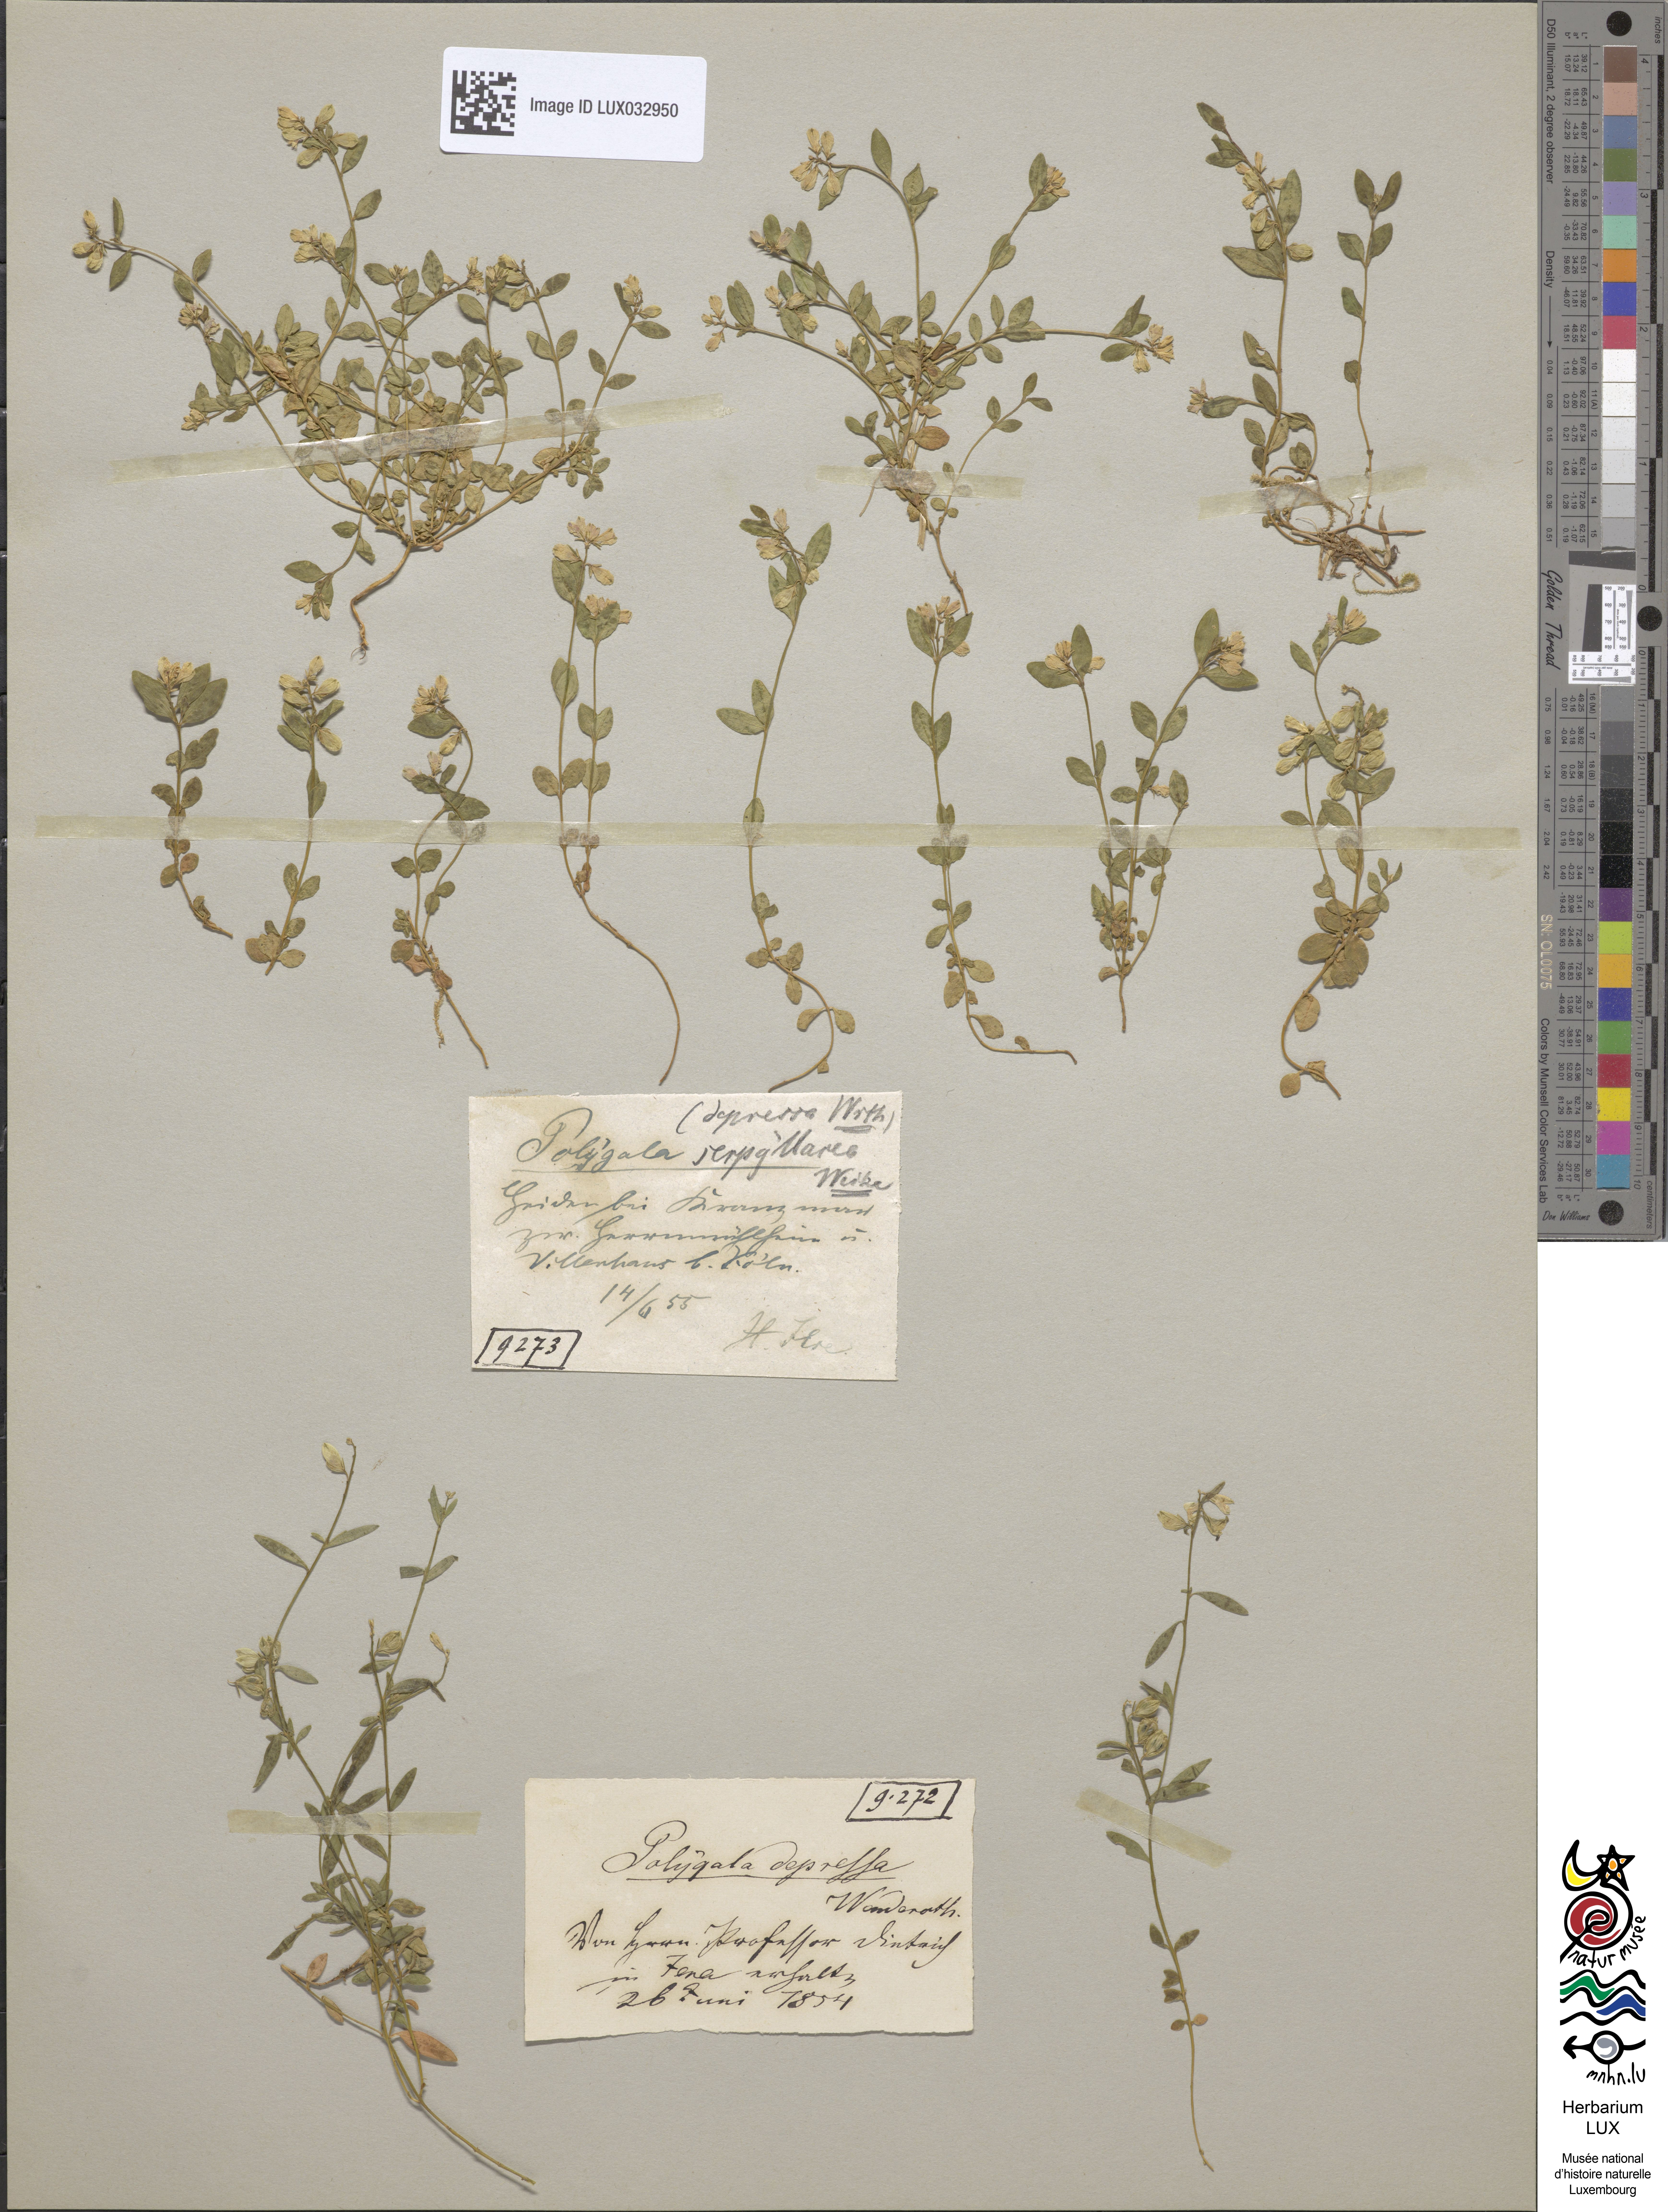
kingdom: Plantae
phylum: Tracheophyta
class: Magnoliopsida
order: Fabales
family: Polygalaceae
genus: Polygala
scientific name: Polygala serpyllifolia
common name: Heath milkwort
